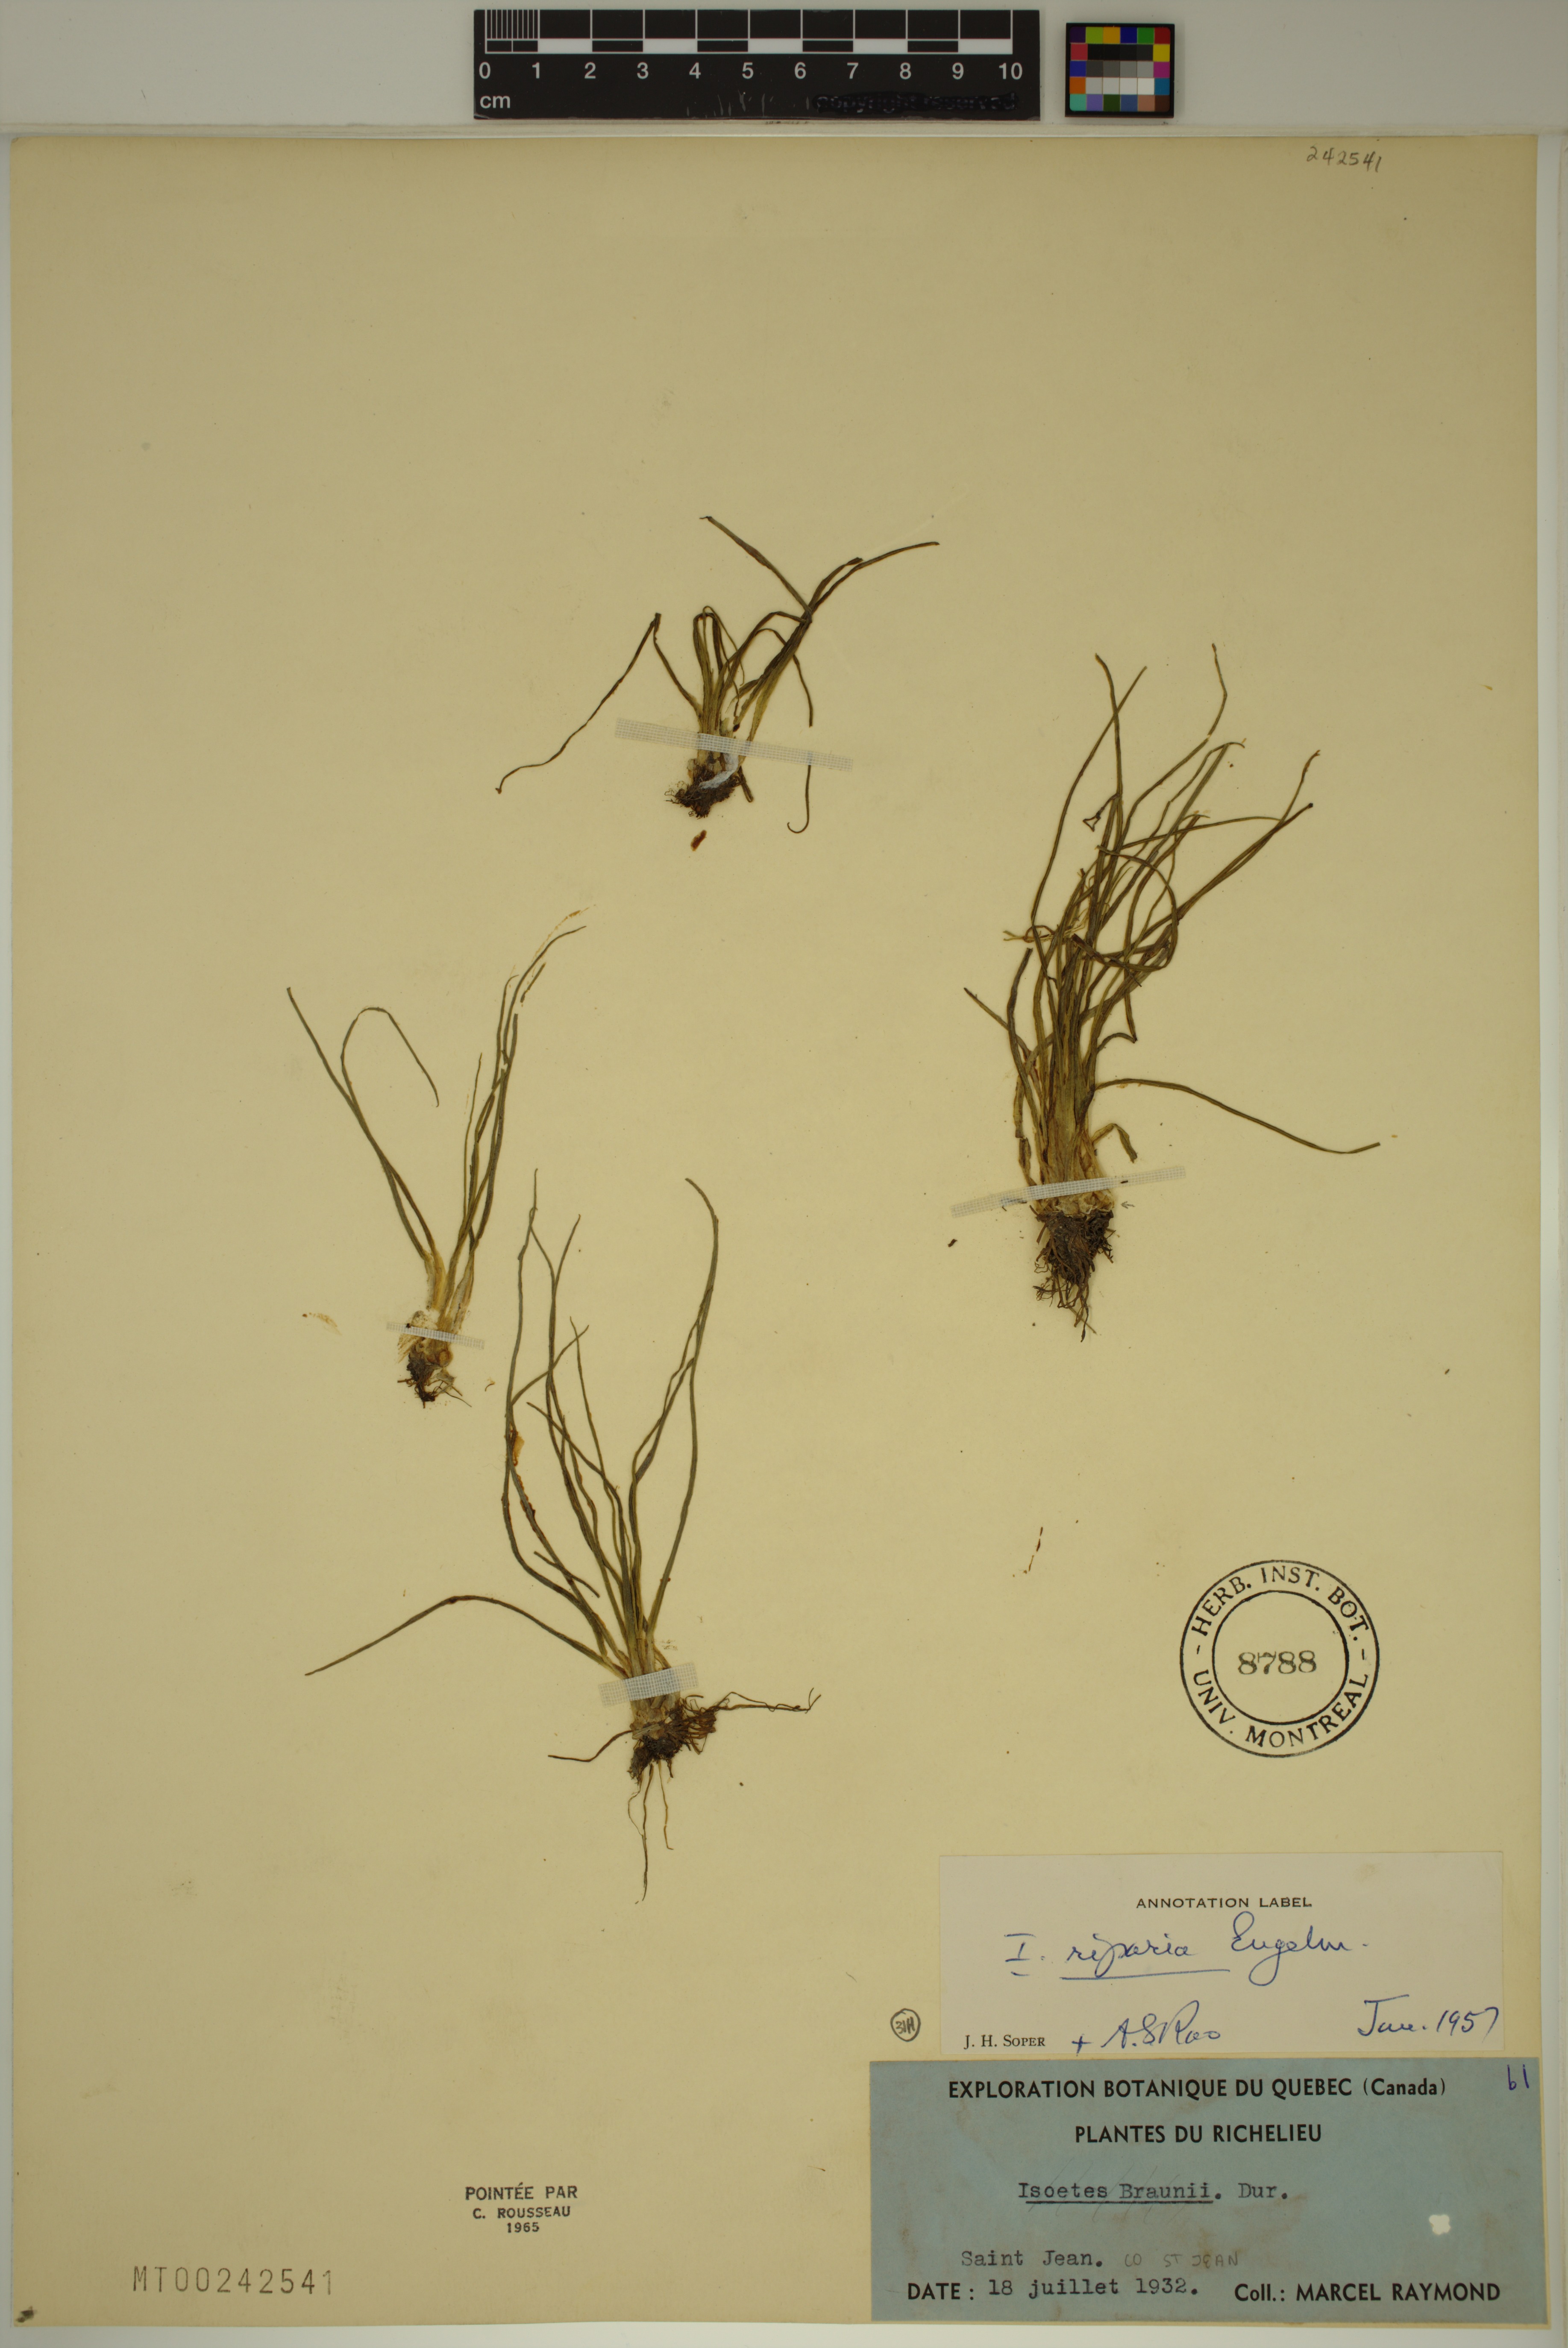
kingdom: Plantae
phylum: Tracheophyta
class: Lycopodiopsida
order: Isoetales
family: Isoetaceae
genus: Isoetes
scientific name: Isoetes septentrionalis
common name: Northern quillwort
